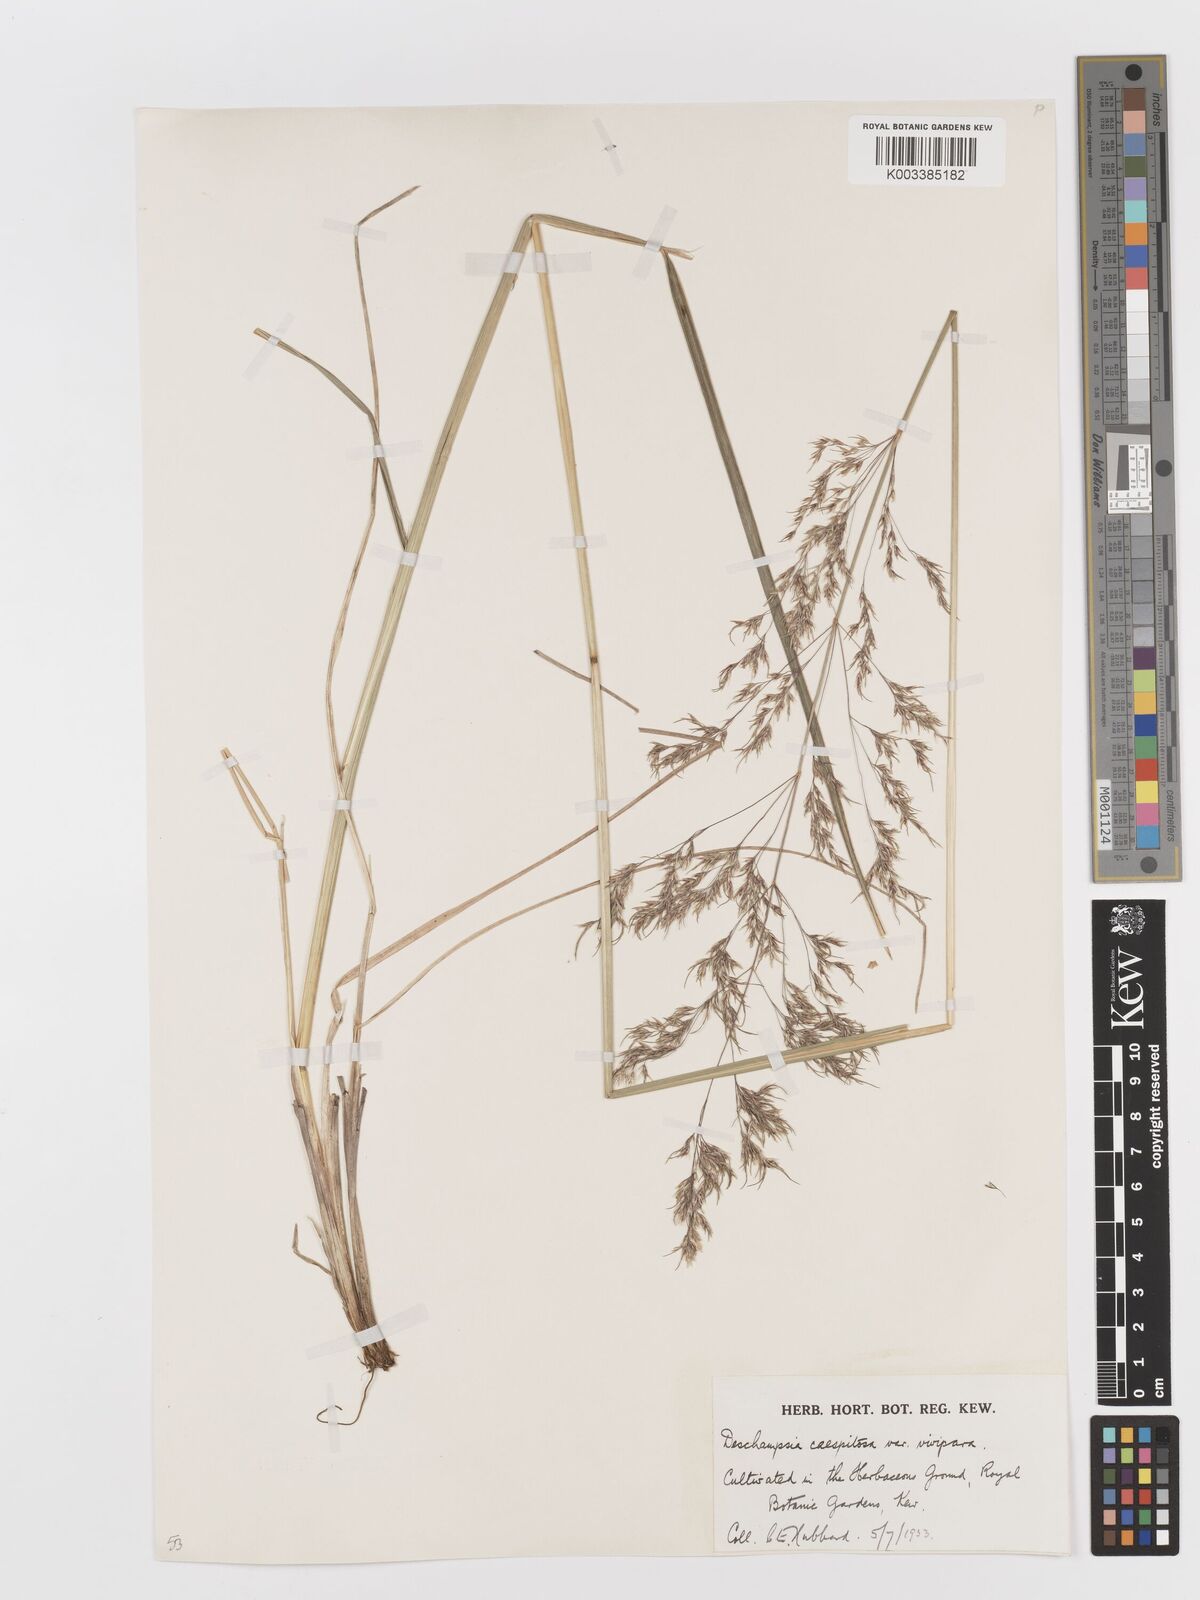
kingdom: Plantae
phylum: Tracheophyta
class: Liliopsida
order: Poales
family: Poaceae
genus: Deschampsia
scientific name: Deschampsia cespitosa
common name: Tufted hair-grass
